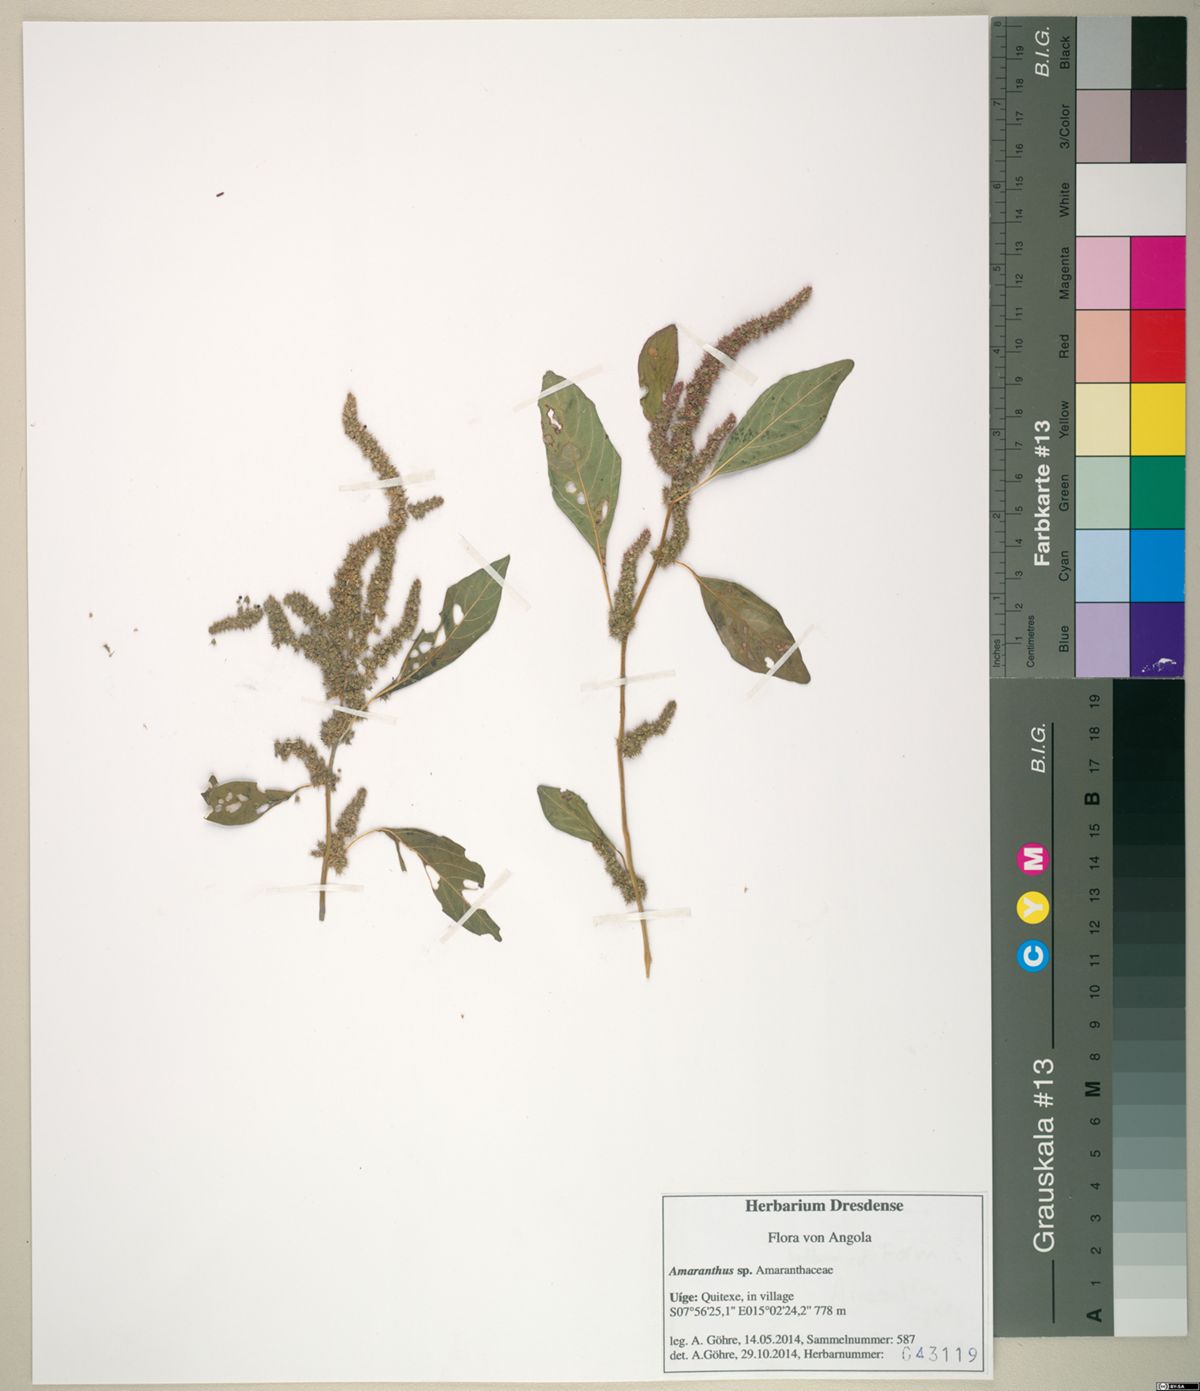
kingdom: Plantae
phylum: Tracheophyta
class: Magnoliopsida
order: Caryophyllales
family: Amaranthaceae
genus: Amaranthus
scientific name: Amaranthus tricolor
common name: Joseph's-coat
